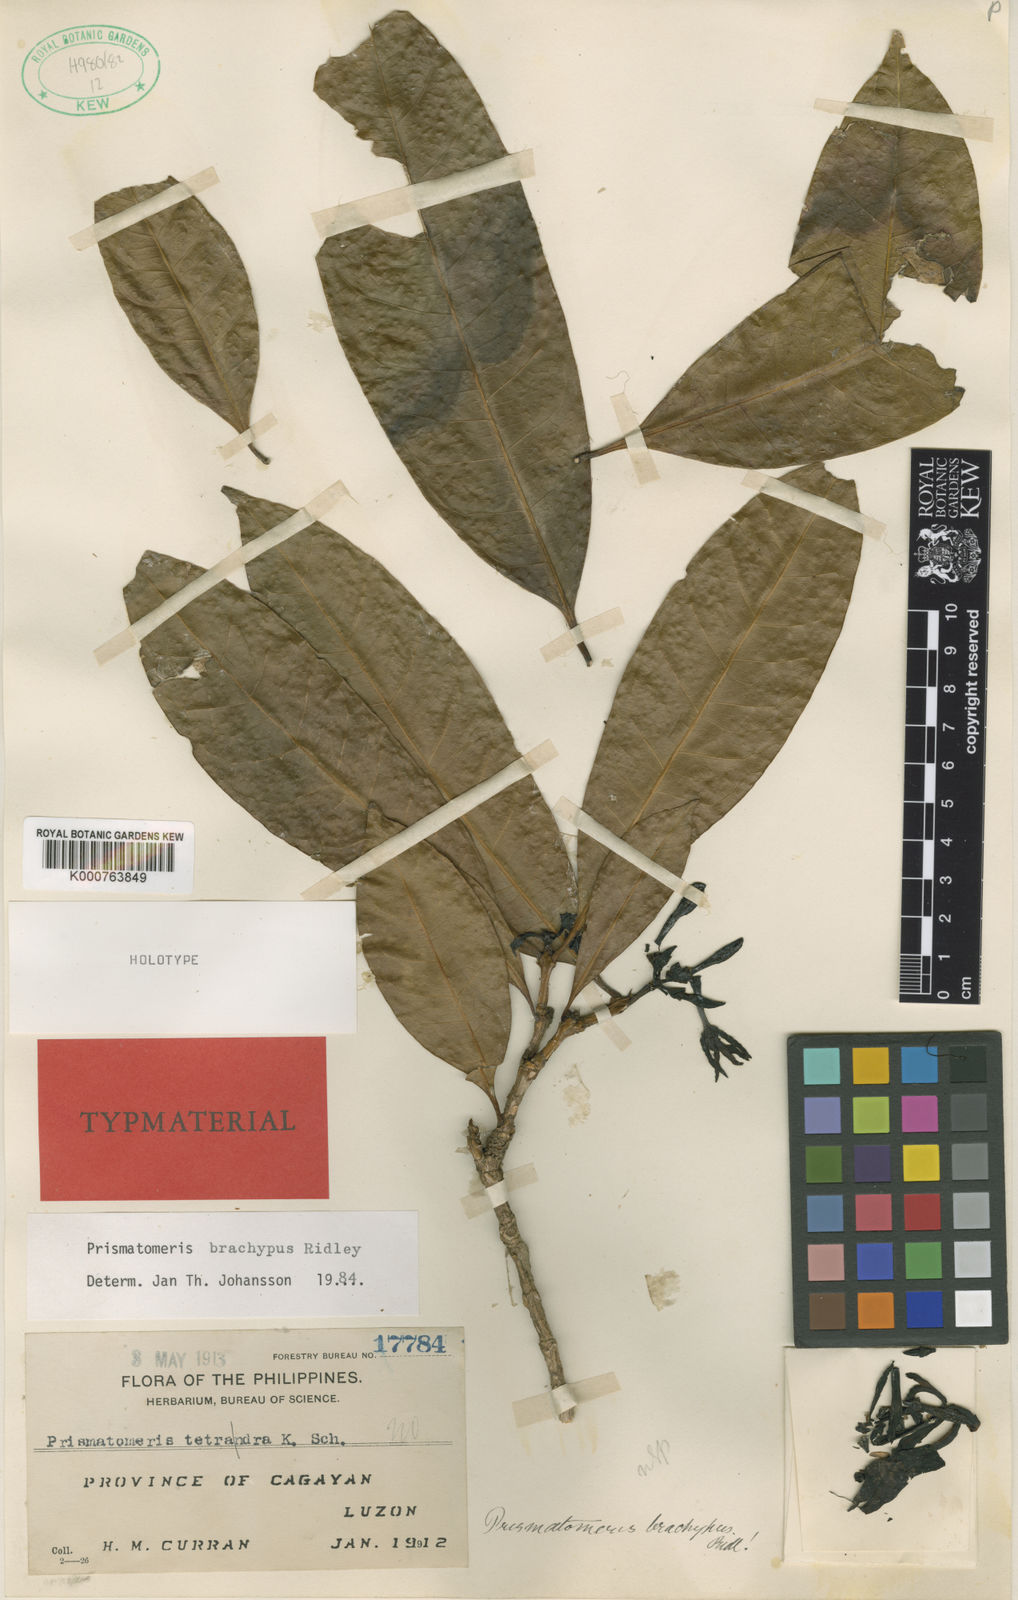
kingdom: Plantae
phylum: Tracheophyta
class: Magnoliopsida
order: Gentianales
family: Rubiaceae
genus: Prismatomeris
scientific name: Prismatomeris brachypus
